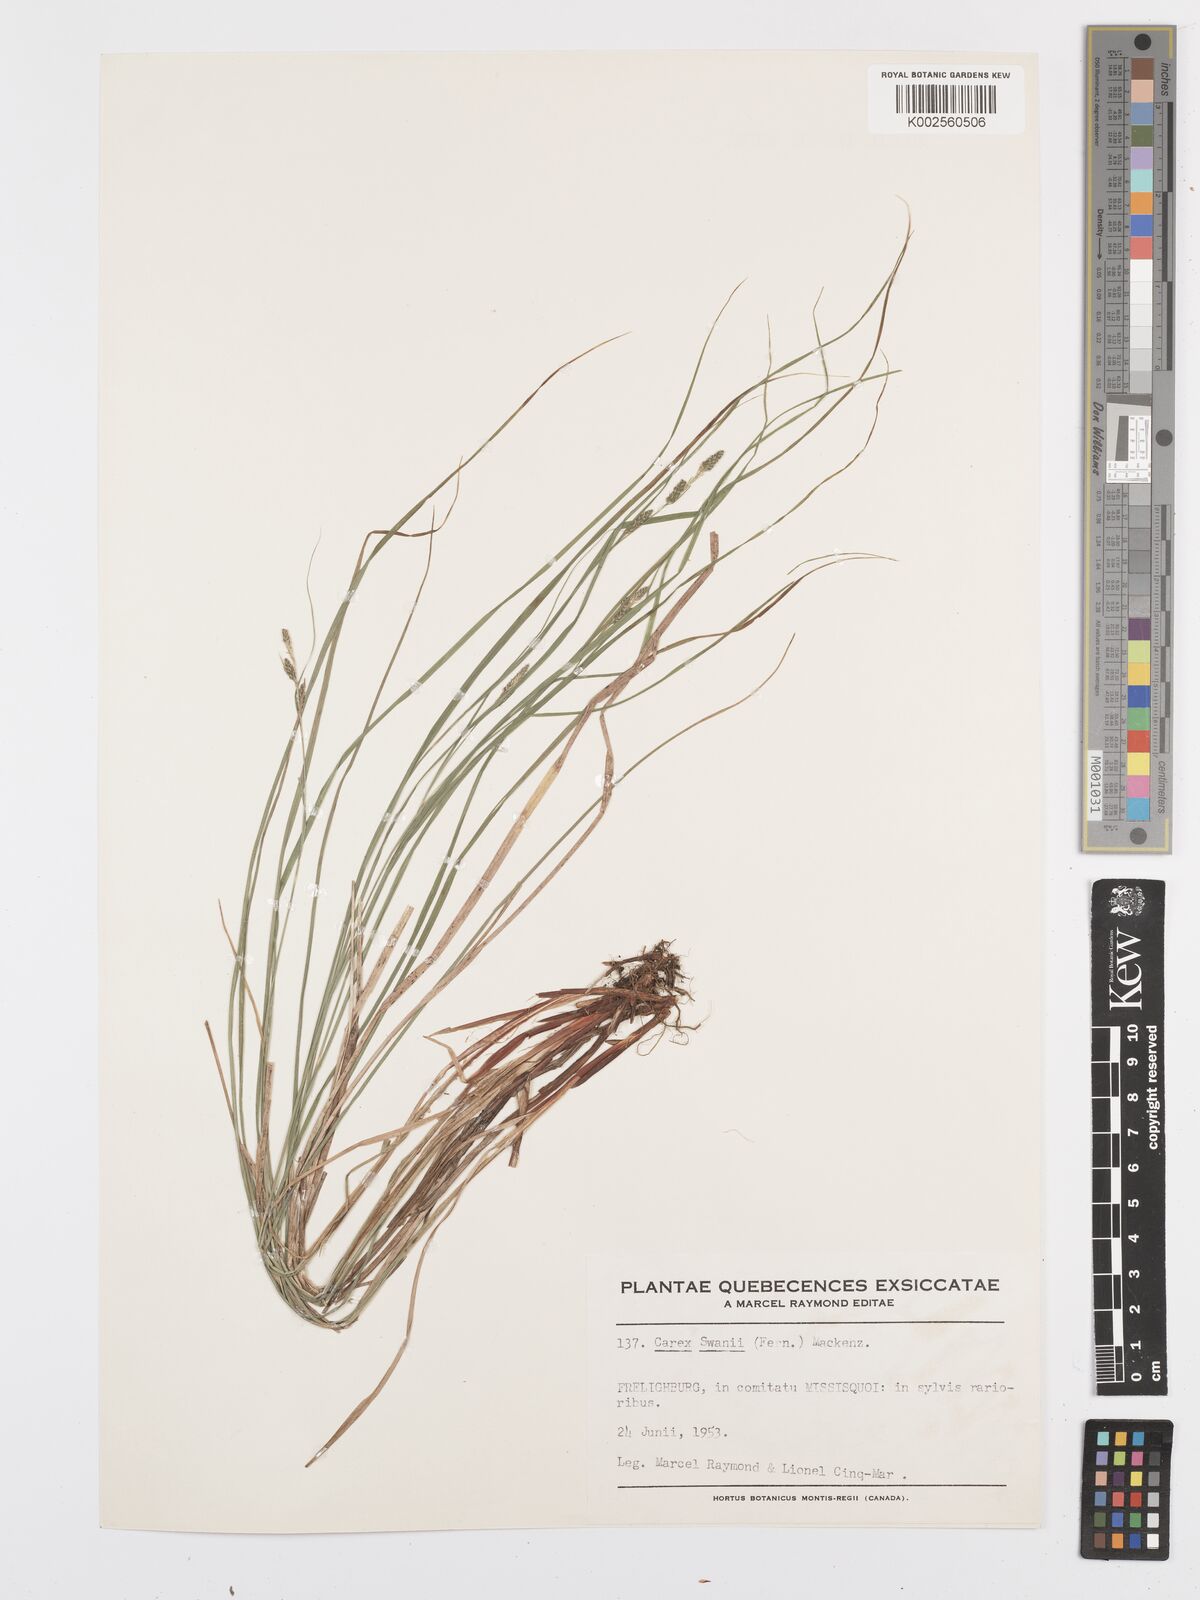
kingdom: Plantae
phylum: Tracheophyta
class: Liliopsida
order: Poales
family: Cyperaceae
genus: Carex
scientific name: Carex swanii
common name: Downy green sedge
